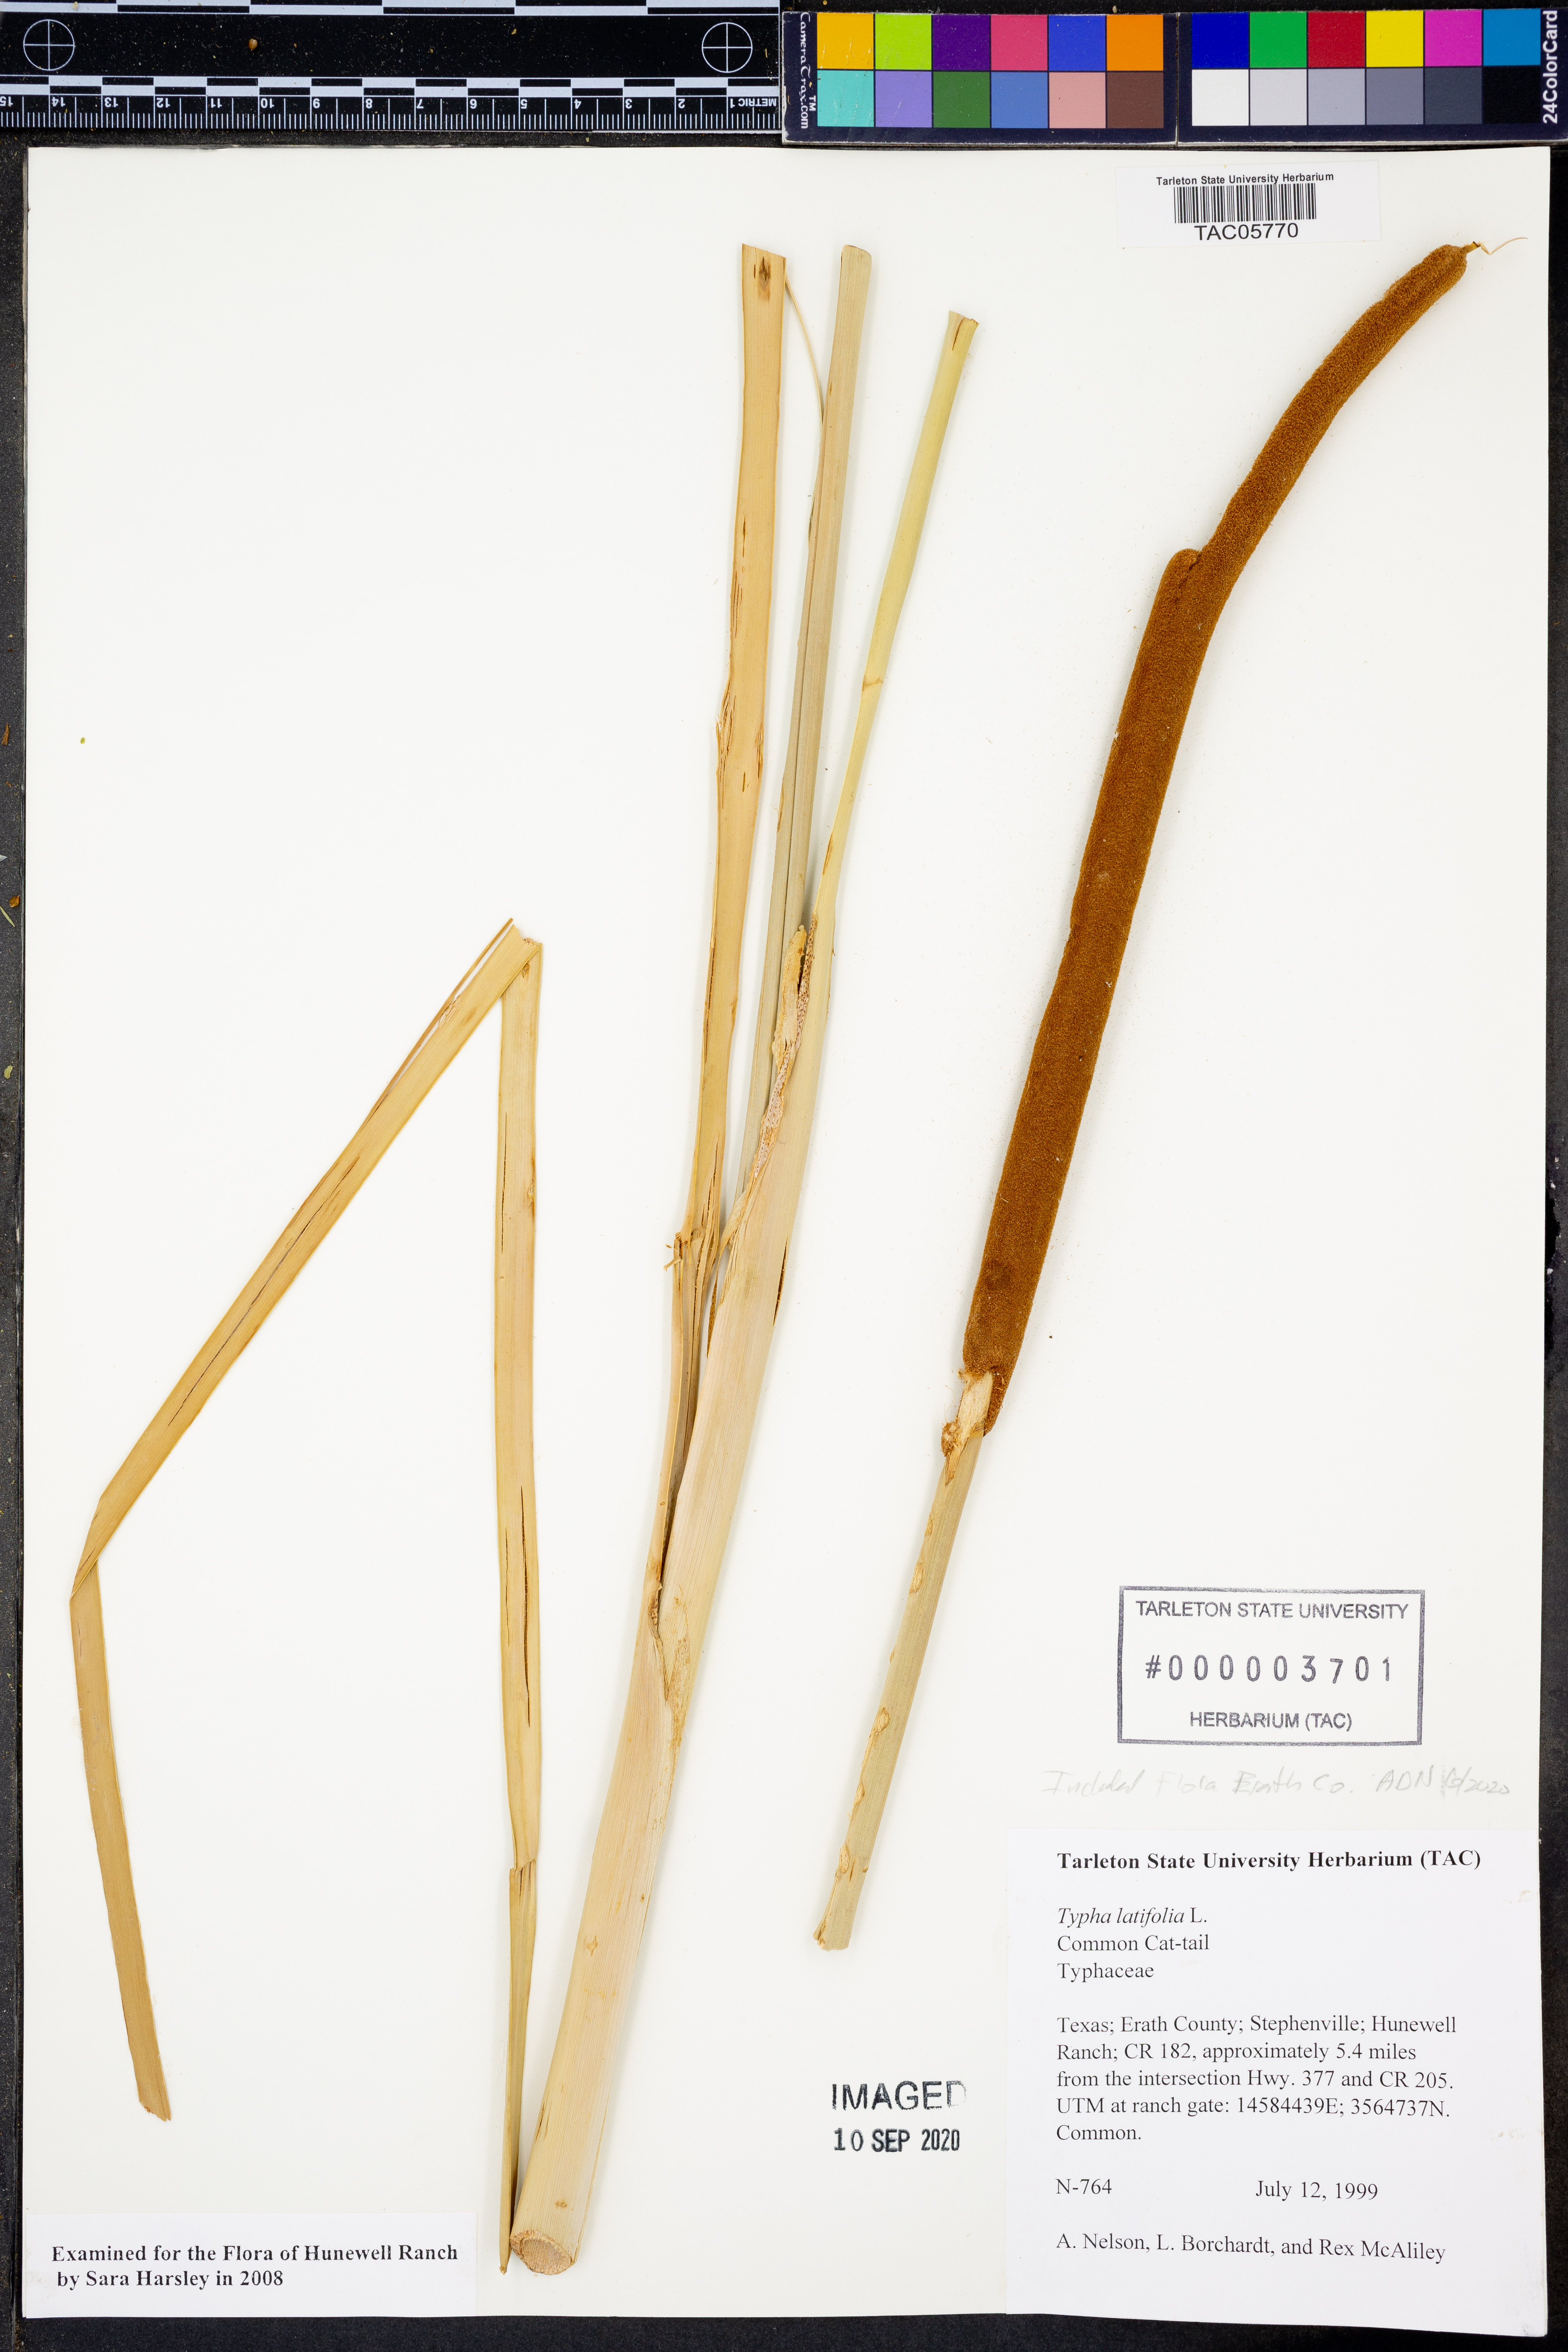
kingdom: Plantae
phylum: Tracheophyta
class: Liliopsida
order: Poales
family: Typhaceae
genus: Typha
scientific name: Typha latifolia
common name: Broadleaf cattail
